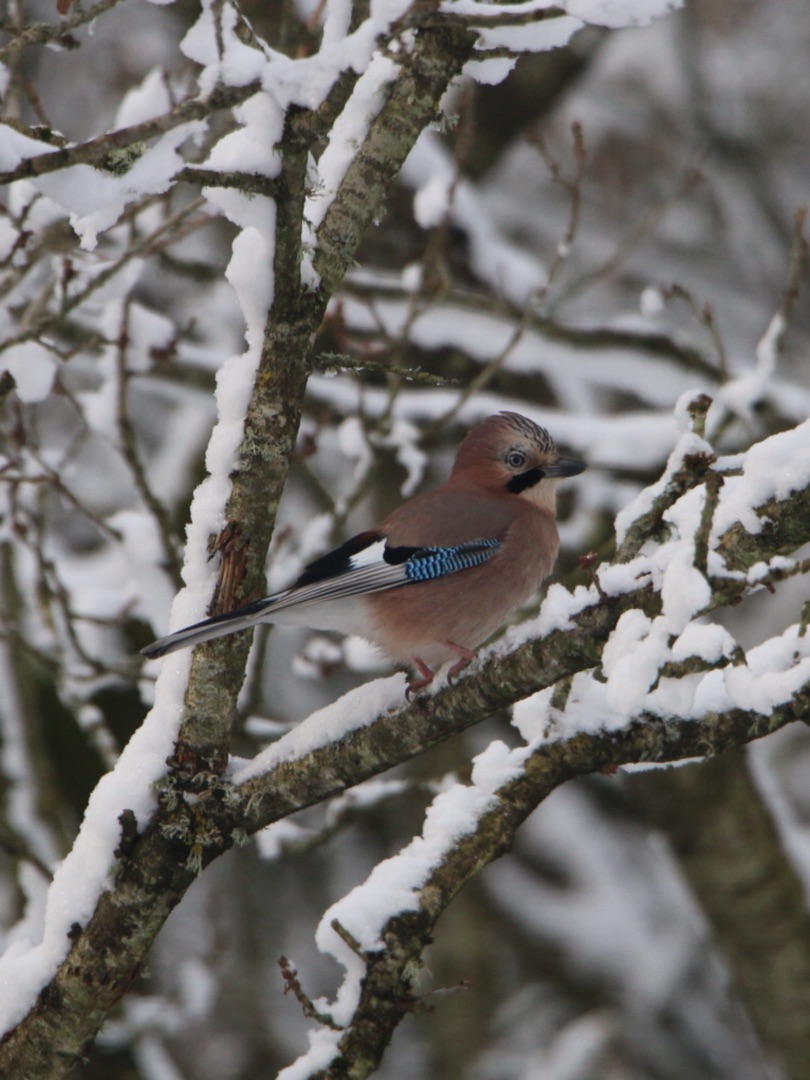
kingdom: Animalia
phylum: Chordata
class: Aves
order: Passeriformes
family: Corvidae
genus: Garrulus
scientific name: Garrulus glandarius
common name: Skovskade
